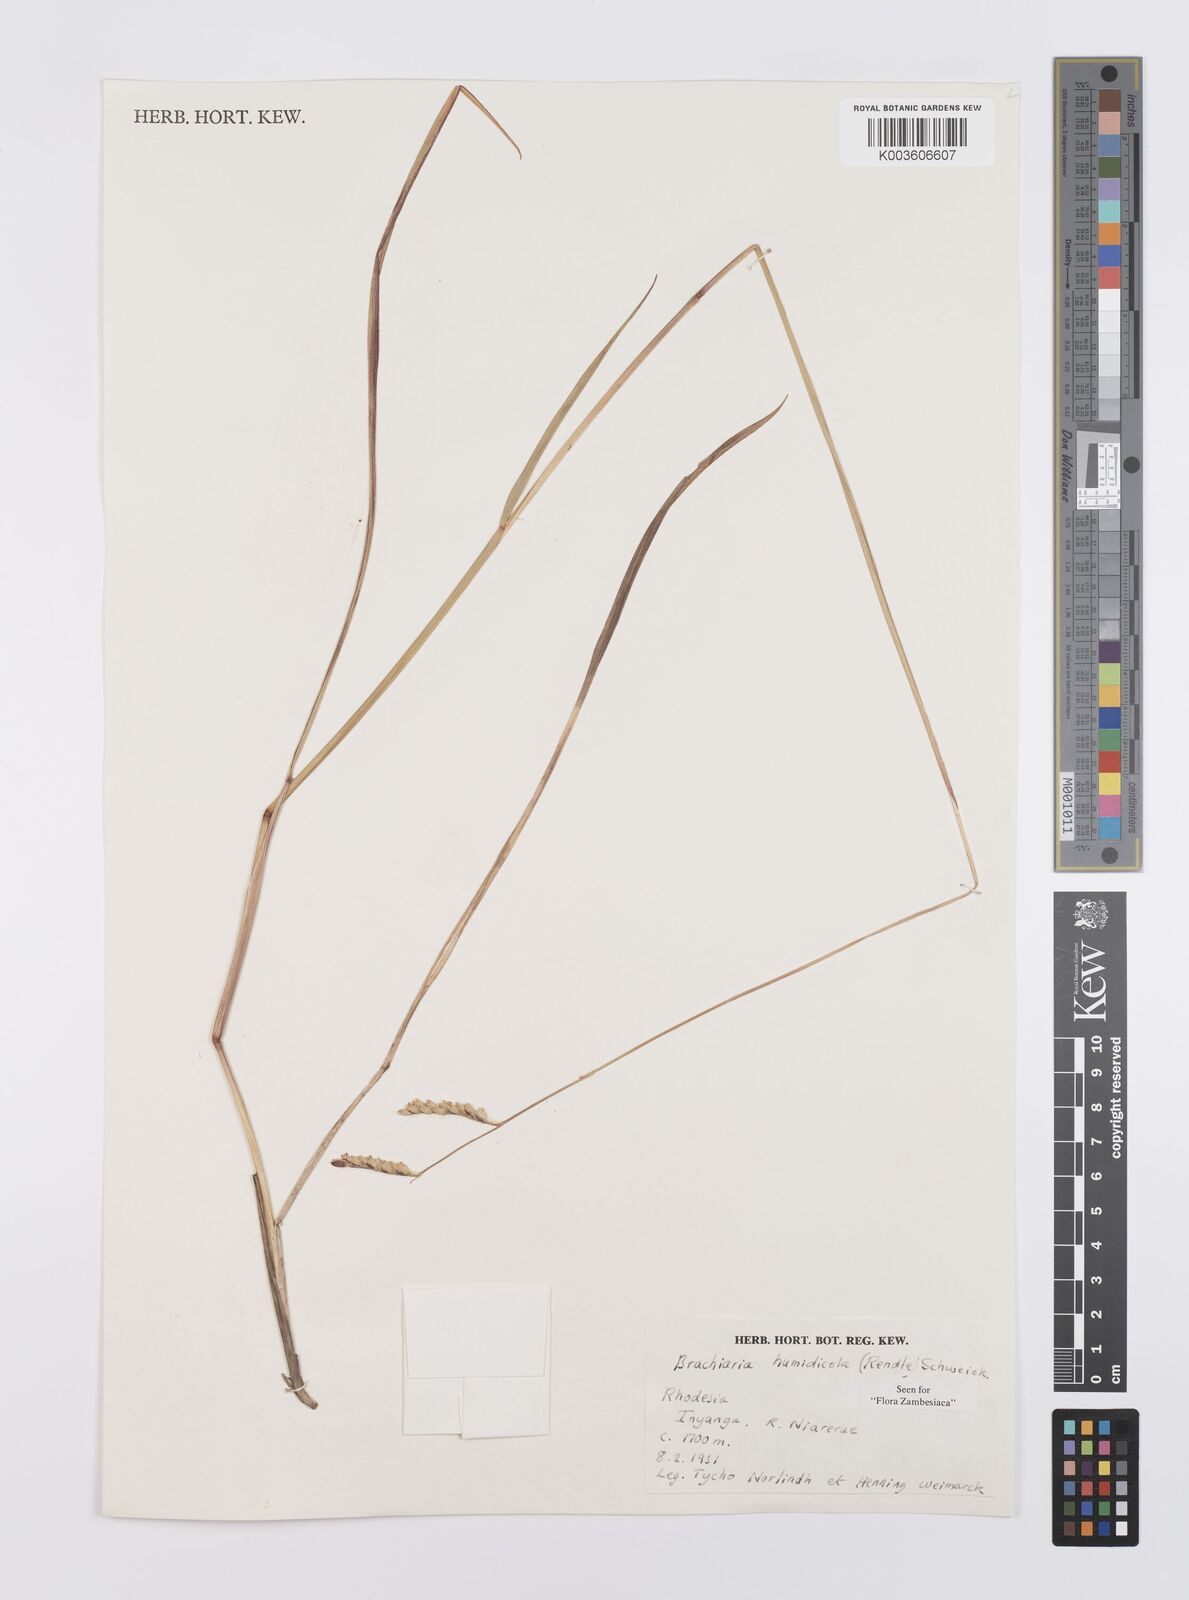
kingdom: Plantae
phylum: Tracheophyta
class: Liliopsida
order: Poales
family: Poaceae
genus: Urochloa
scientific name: Urochloa dictyoneura
